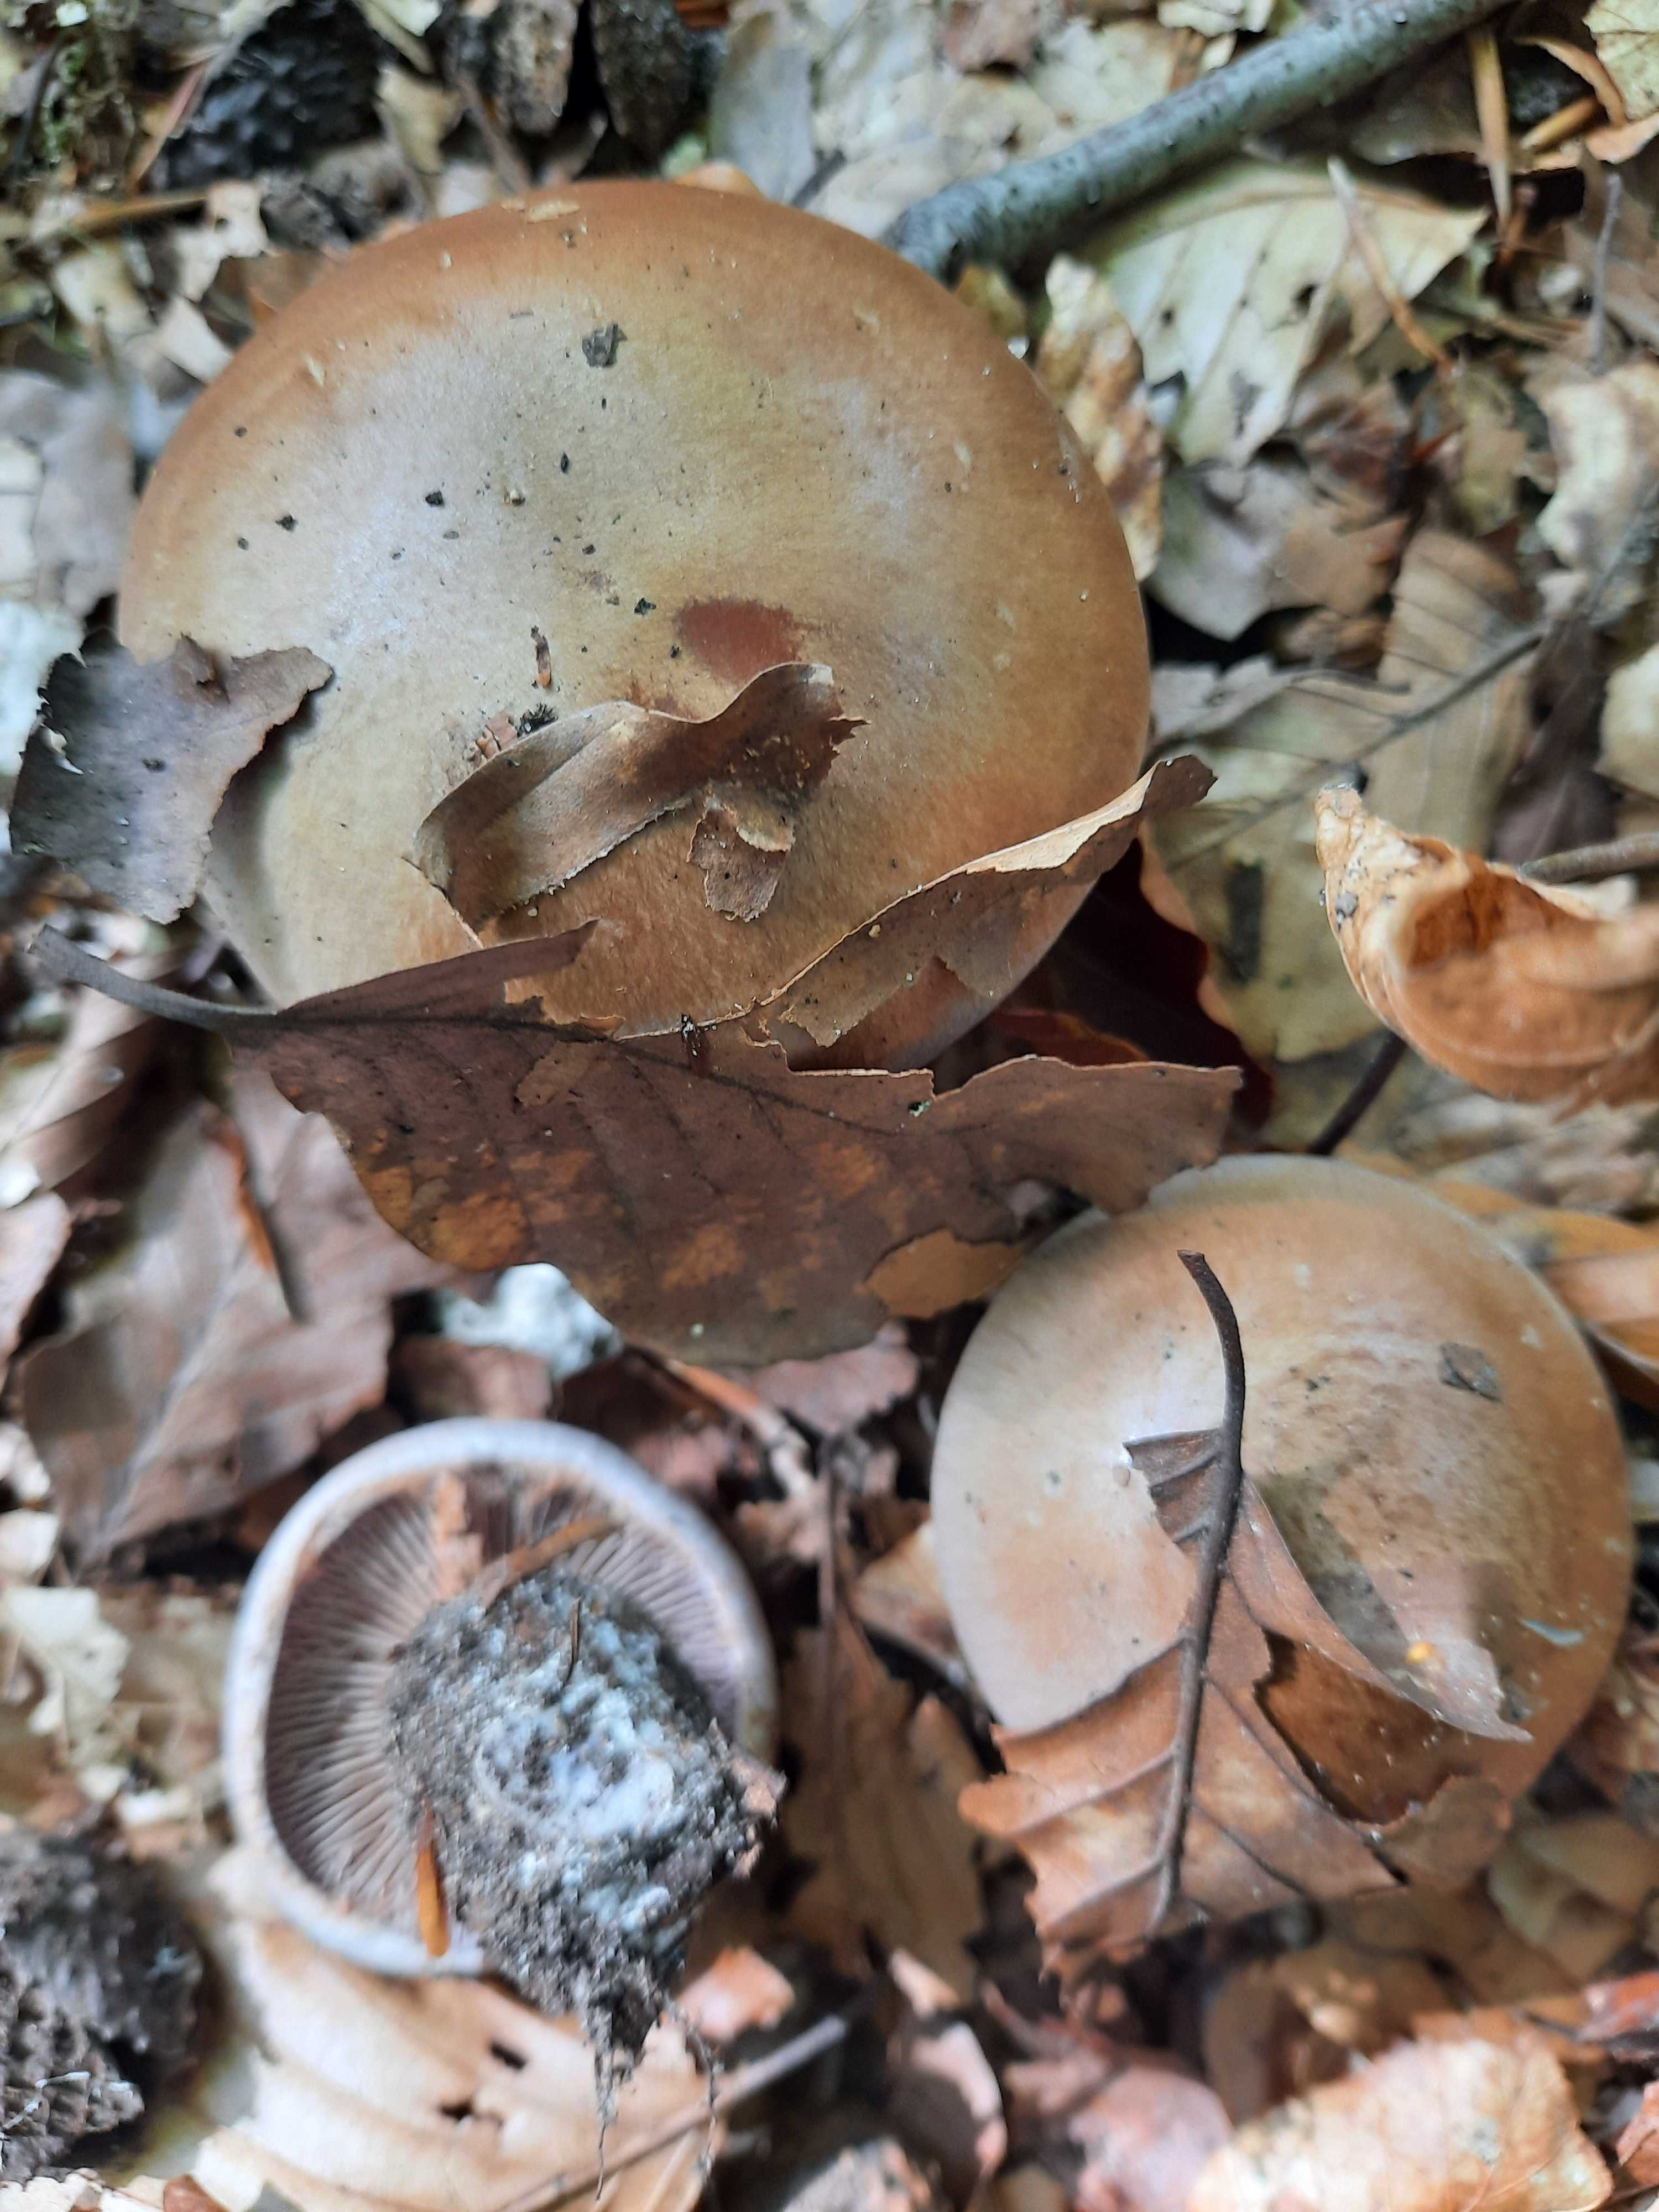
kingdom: Fungi
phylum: Basidiomycota
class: Agaricomycetes
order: Agaricales
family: Cortinariaceae
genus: Cortinarius
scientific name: Cortinarius
